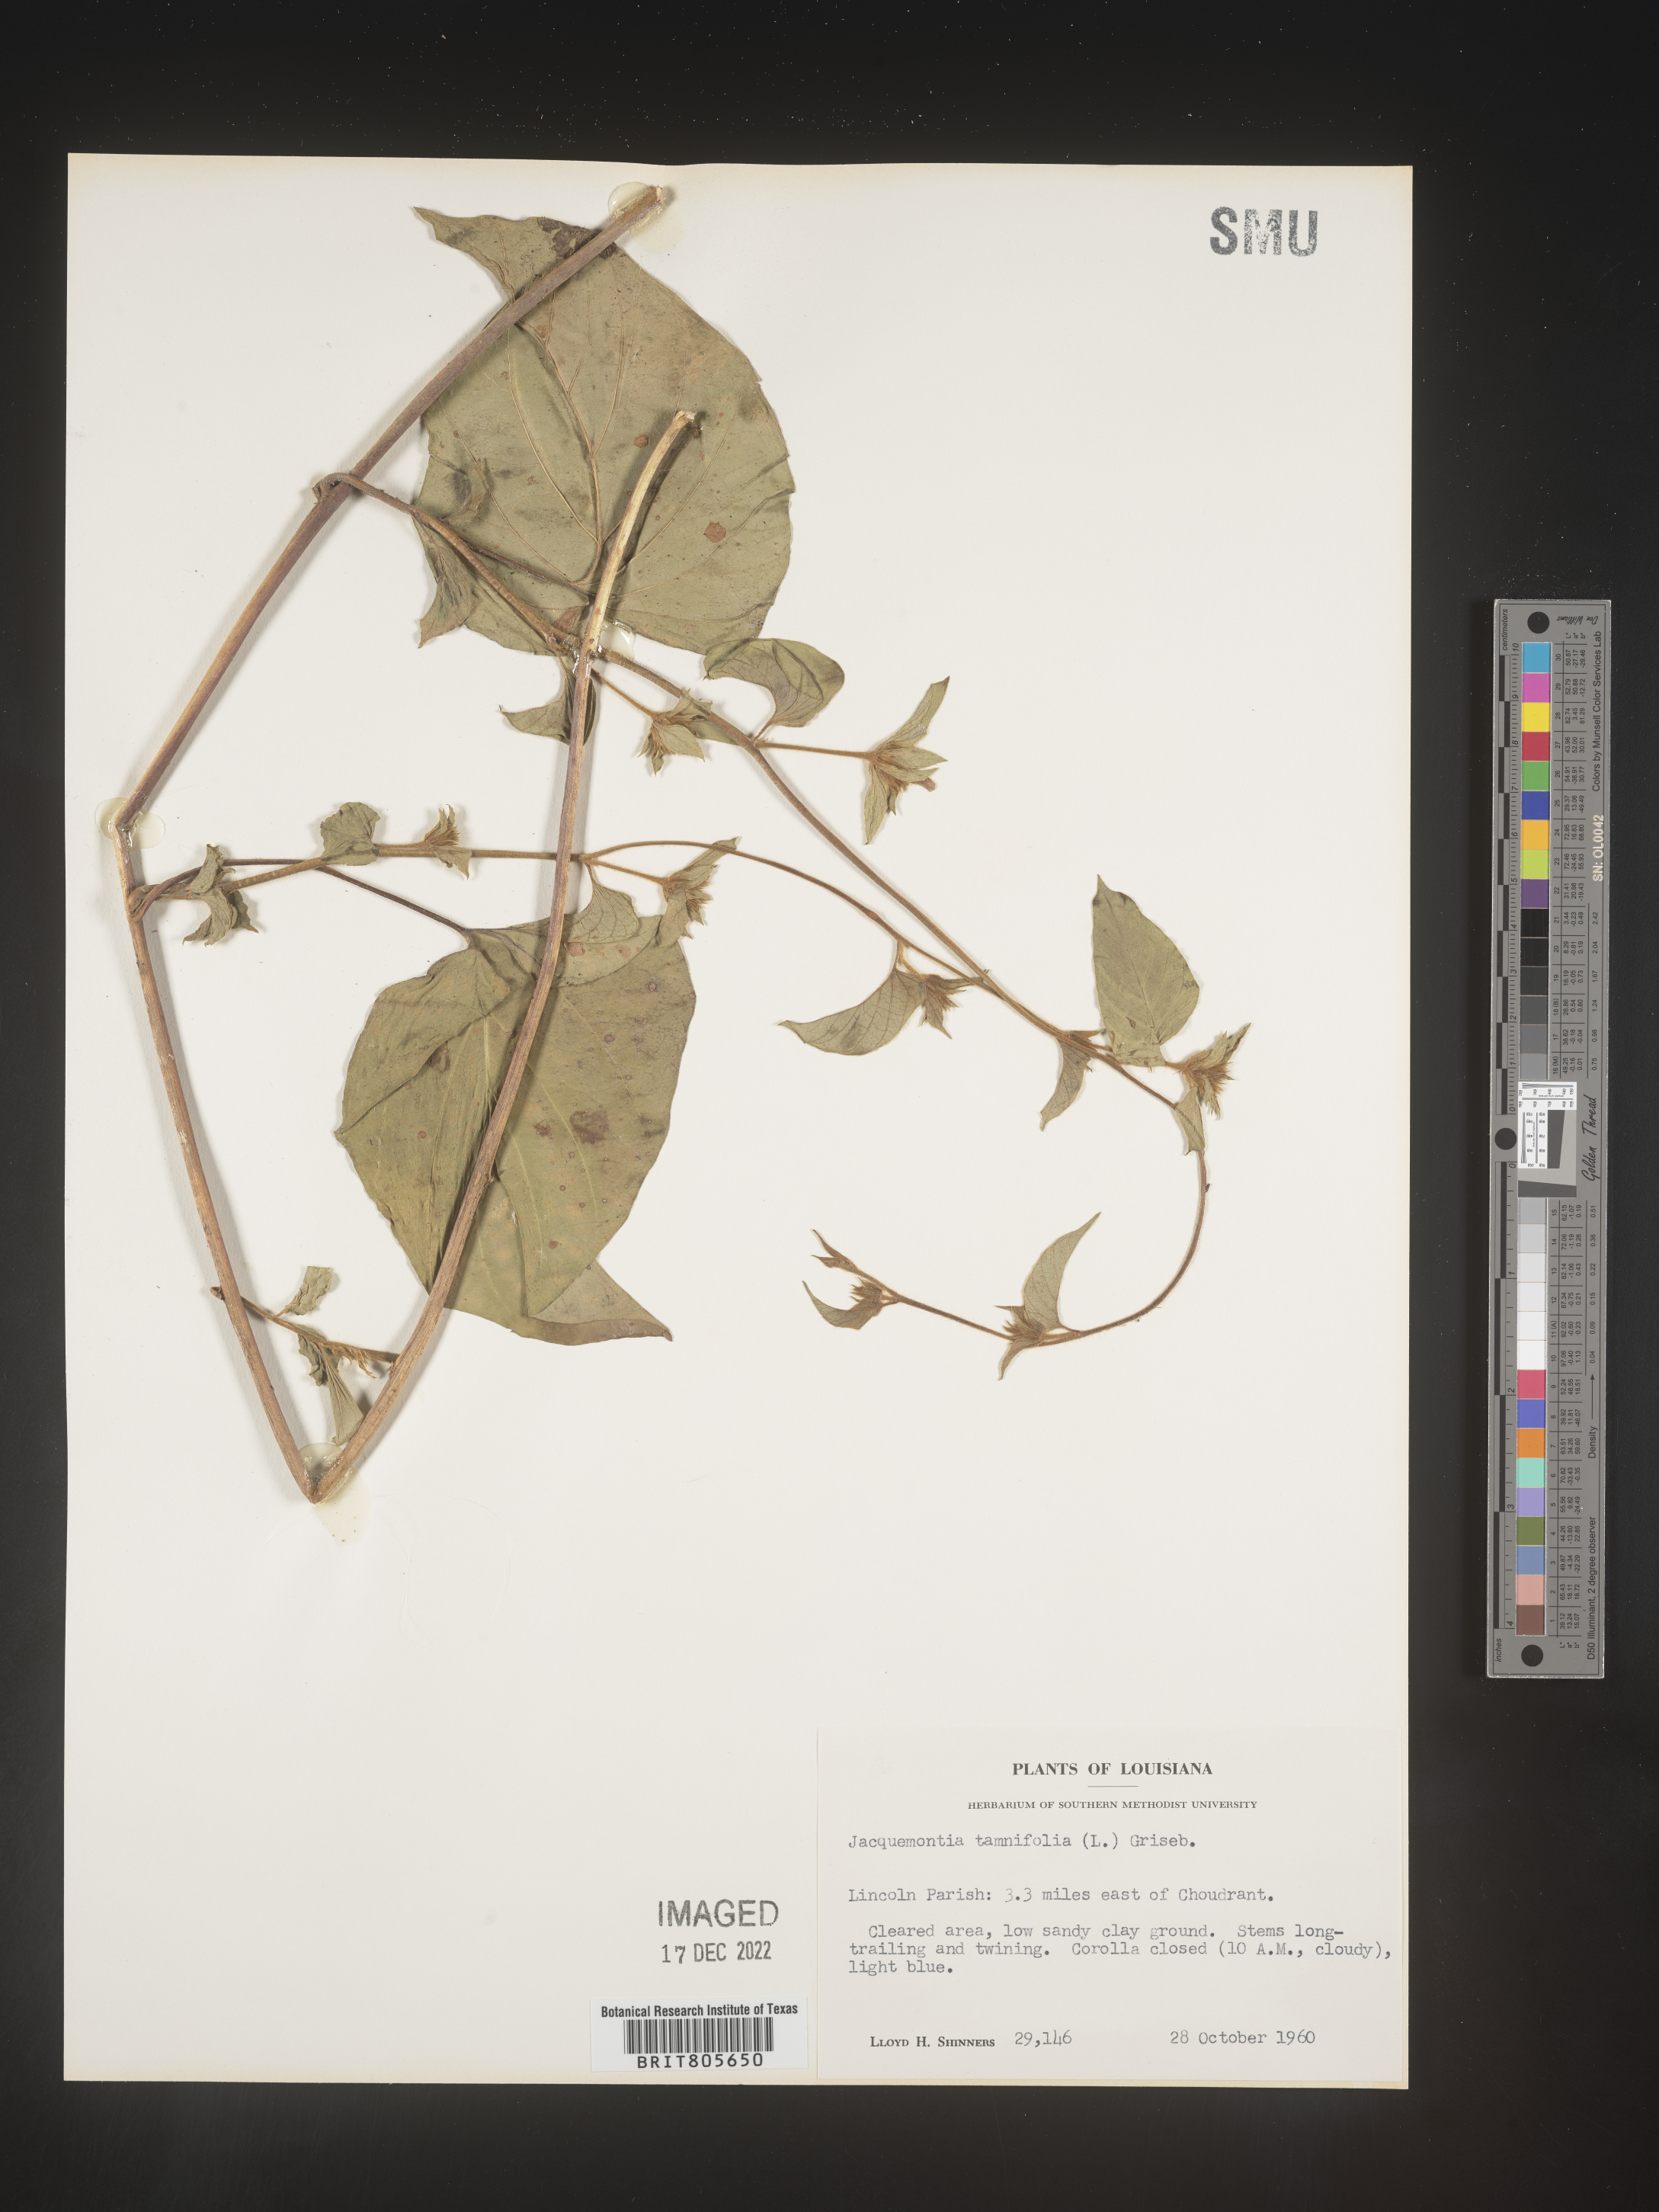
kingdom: Plantae
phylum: Tracheophyta
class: Magnoliopsida
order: Solanales
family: Convolvulaceae
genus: Jacquemontia
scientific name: Jacquemontia tamnifolia
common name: Hairy clustervine
